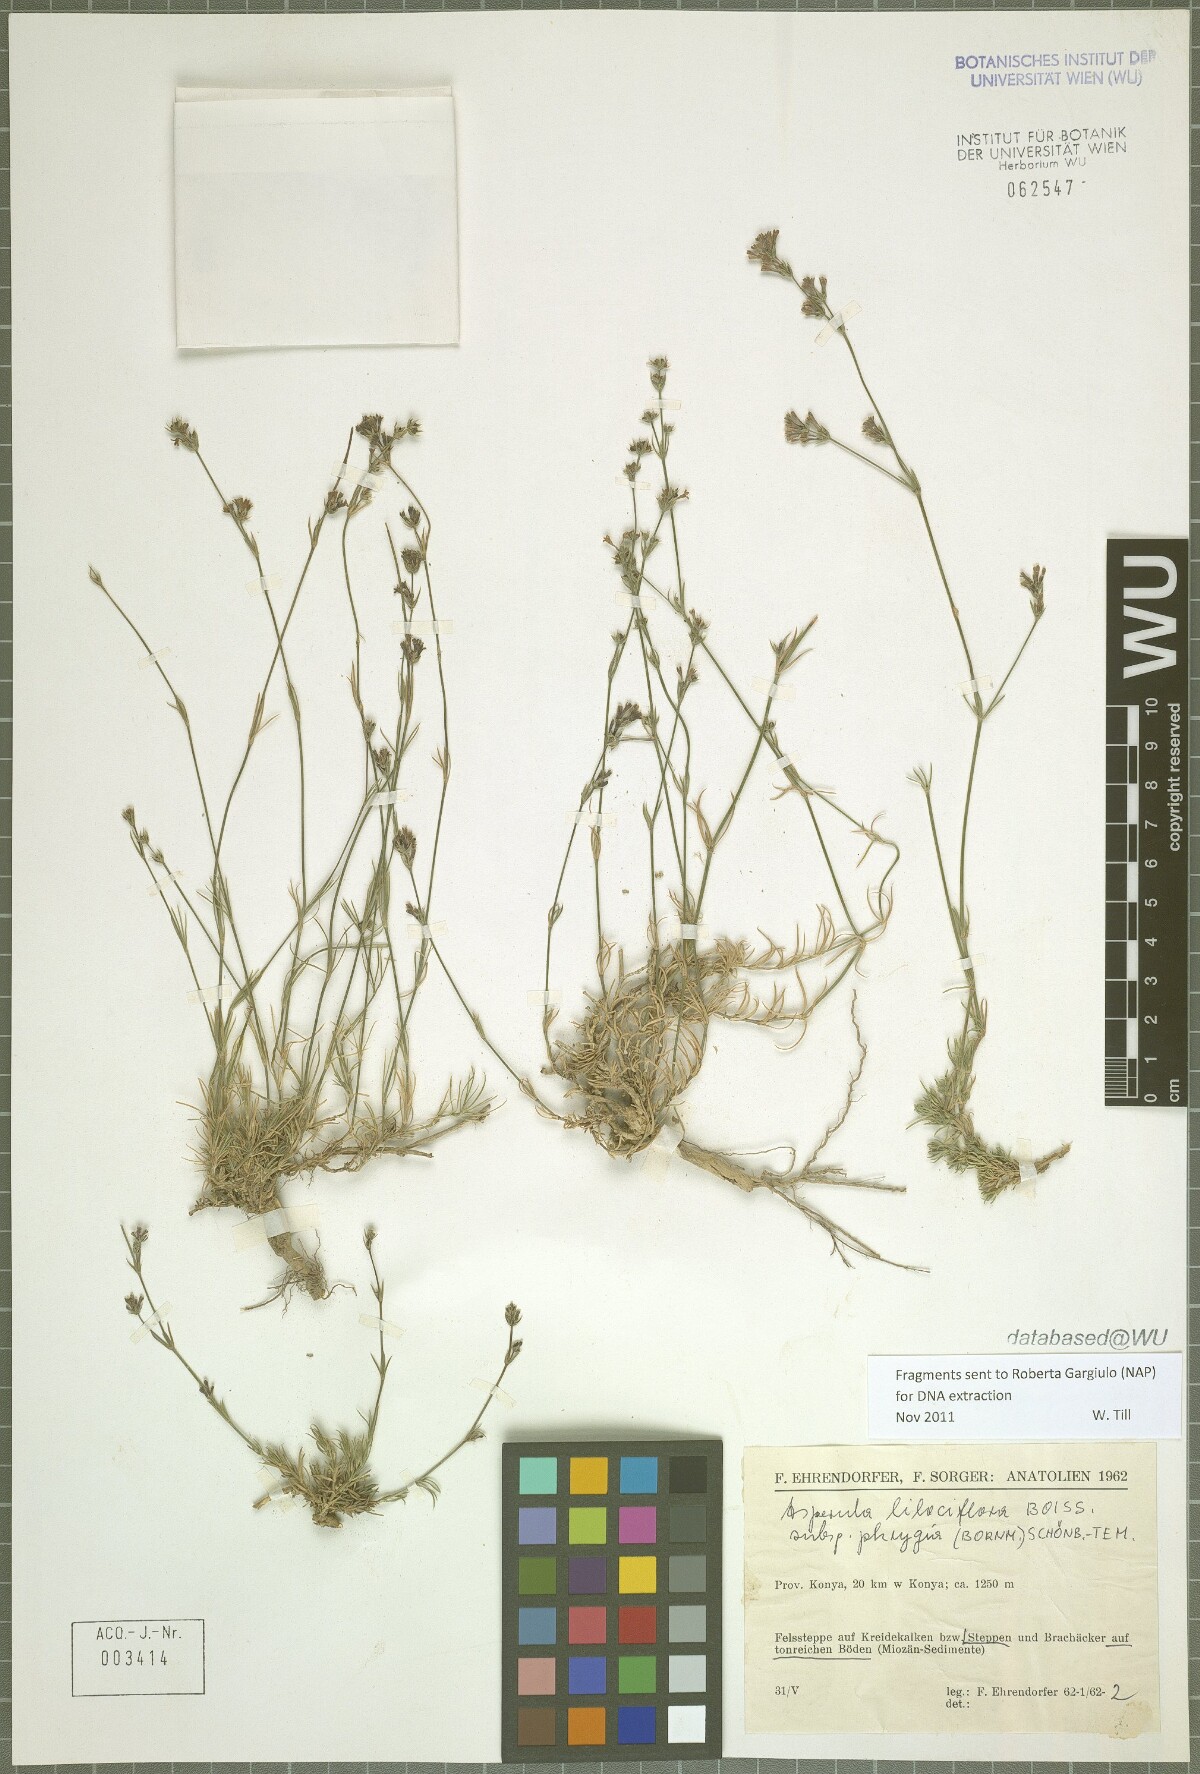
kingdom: Plantae
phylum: Tracheophyta
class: Magnoliopsida
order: Gentianales
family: Rubiaceae
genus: Cynanchica
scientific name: Cynanchica lilaciflora
